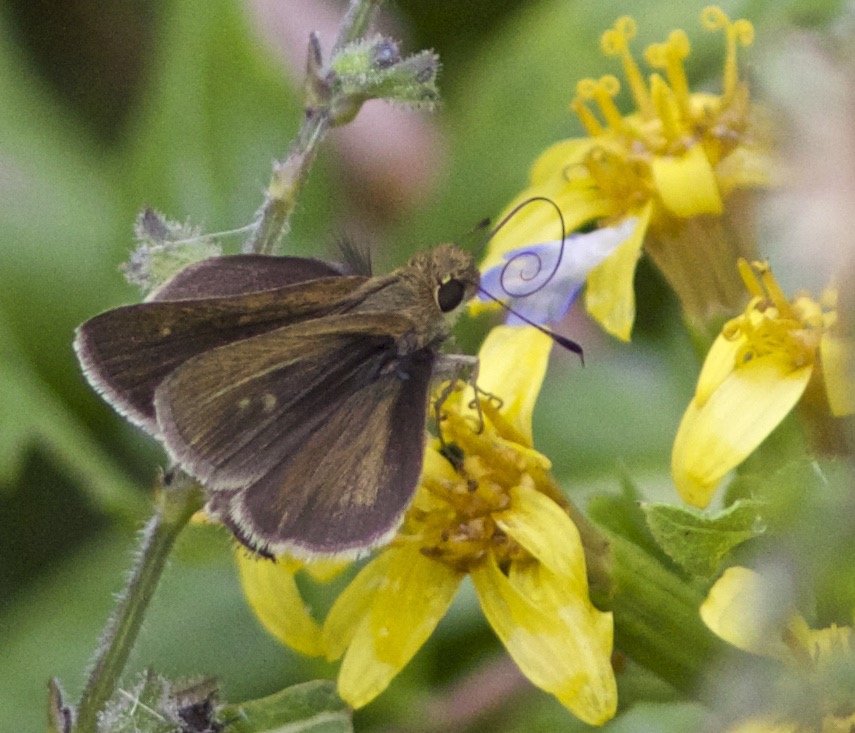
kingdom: Animalia
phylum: Arthropoda
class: Insecta
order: Lepidoptera
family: Hesperiidae
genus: Euphyes
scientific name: Euphyes vestris
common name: Dun Skipper
